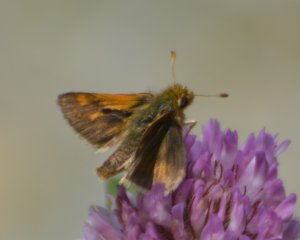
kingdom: Animalia
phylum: Arthropoda
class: Insecta
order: Lepidoptera
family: Hesperiidae
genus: Polites
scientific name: Polites themistocles
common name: Tawny-edged Skipper
